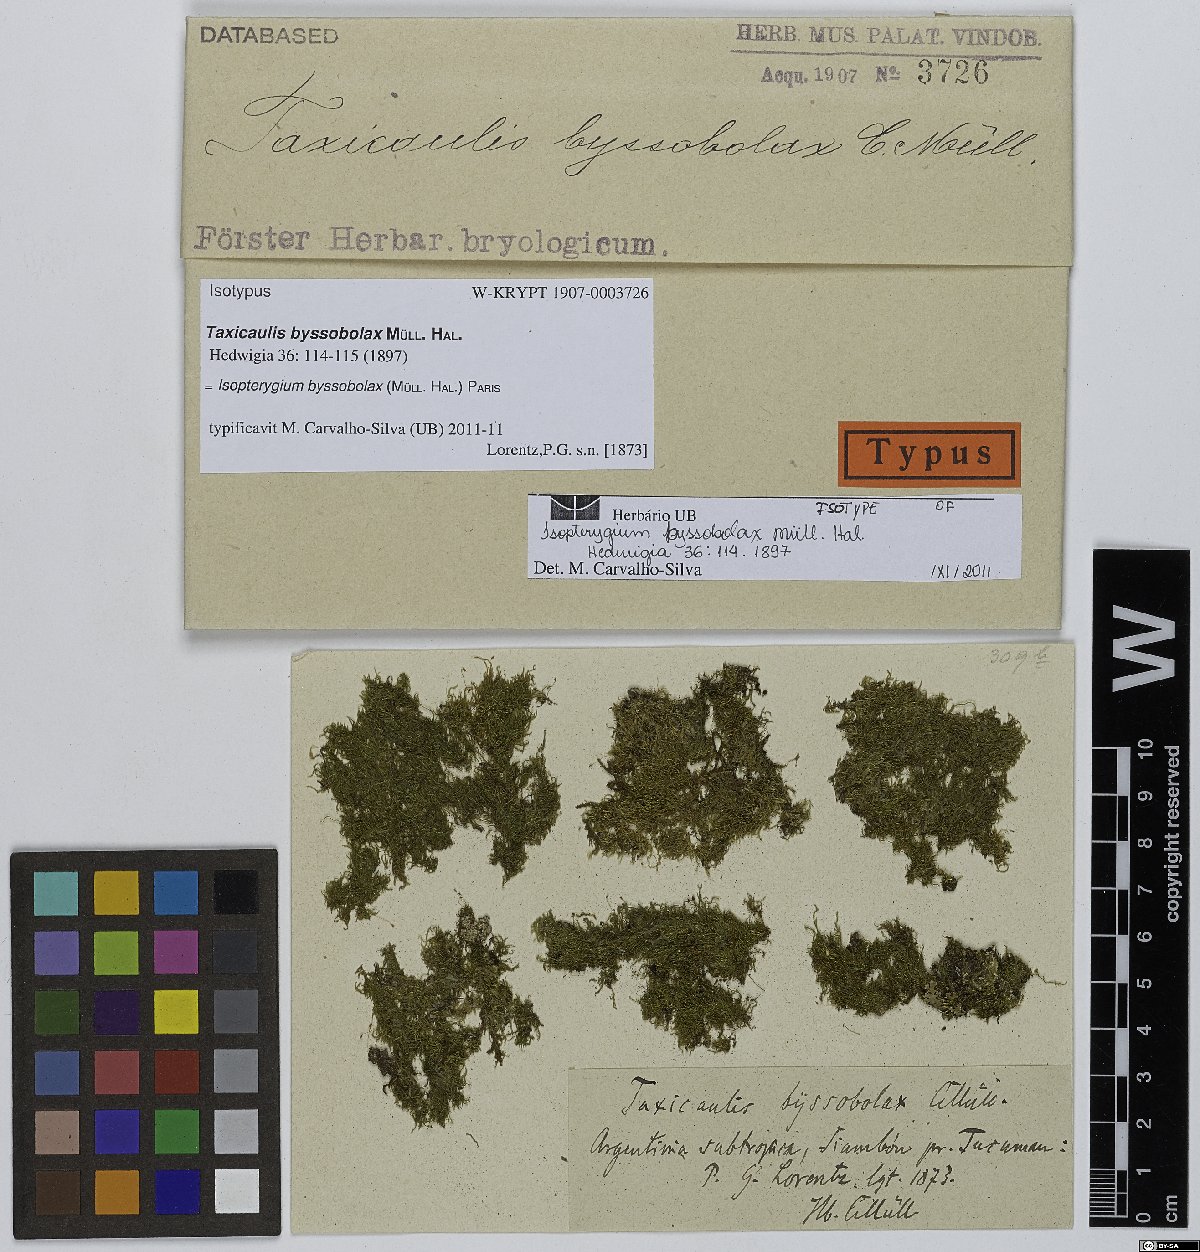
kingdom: Plantae
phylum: Bryophyta
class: Bryopsida
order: Hypnales
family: Pylaisiadelphaceae
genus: Isopterygium
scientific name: Isopterygium byssobolax
